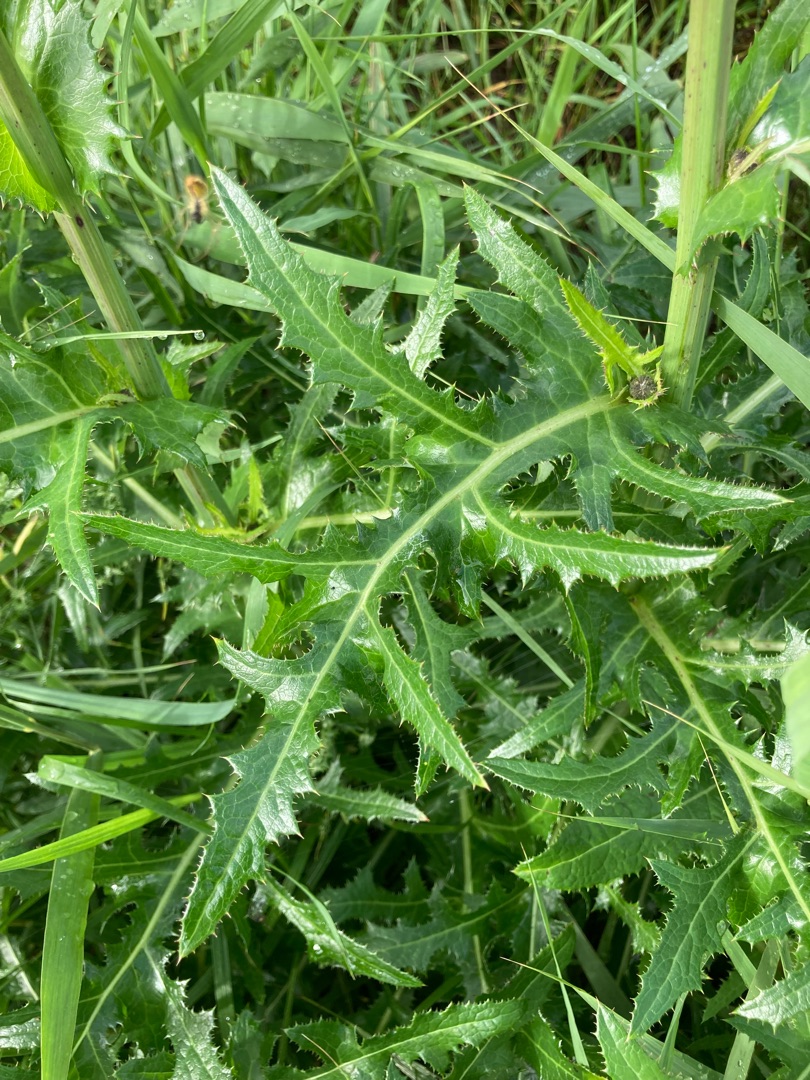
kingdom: Plantae
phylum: Tracheophyta
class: Magnoliopsida
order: Asterales
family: Asteraceae
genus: Sonchus
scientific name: Sonchus arvensis
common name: Ager-svinemælk
